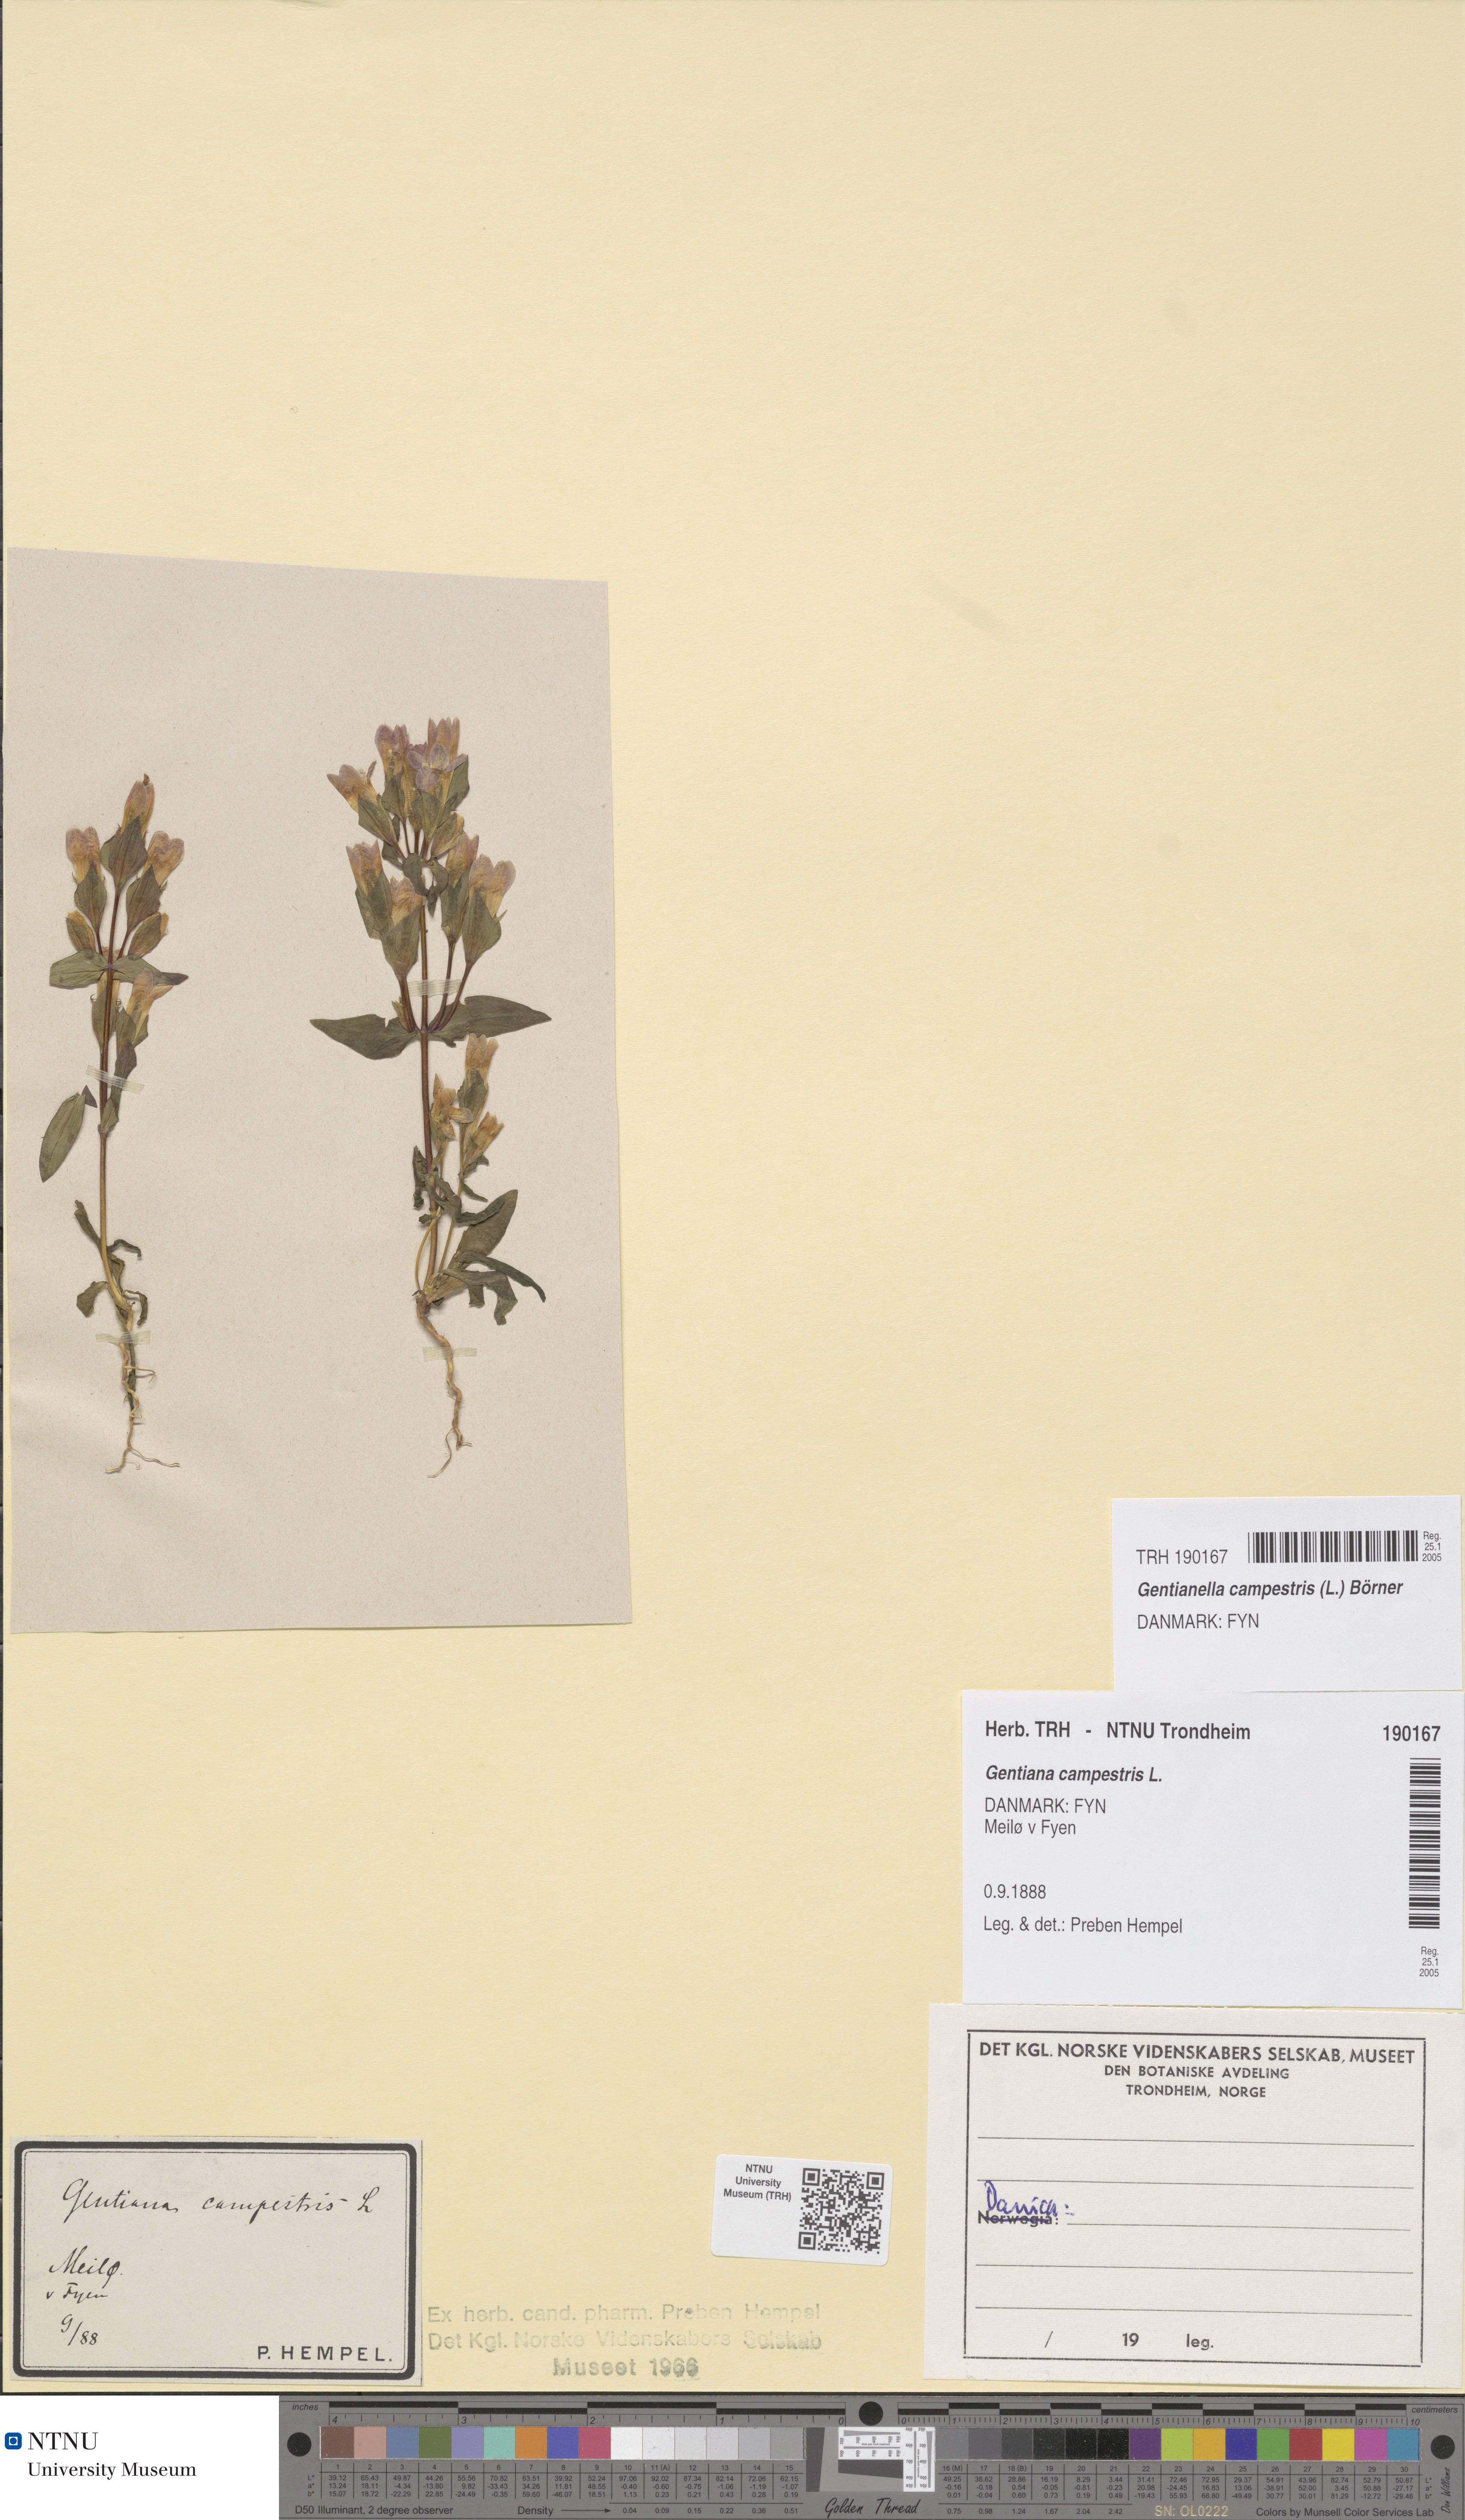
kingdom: Plantae
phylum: Tracheophyta
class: Magnoliopsida
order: Gentianales
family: Gentianaceae
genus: Gentianella
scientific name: Gentianella campestris
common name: Field gentian
